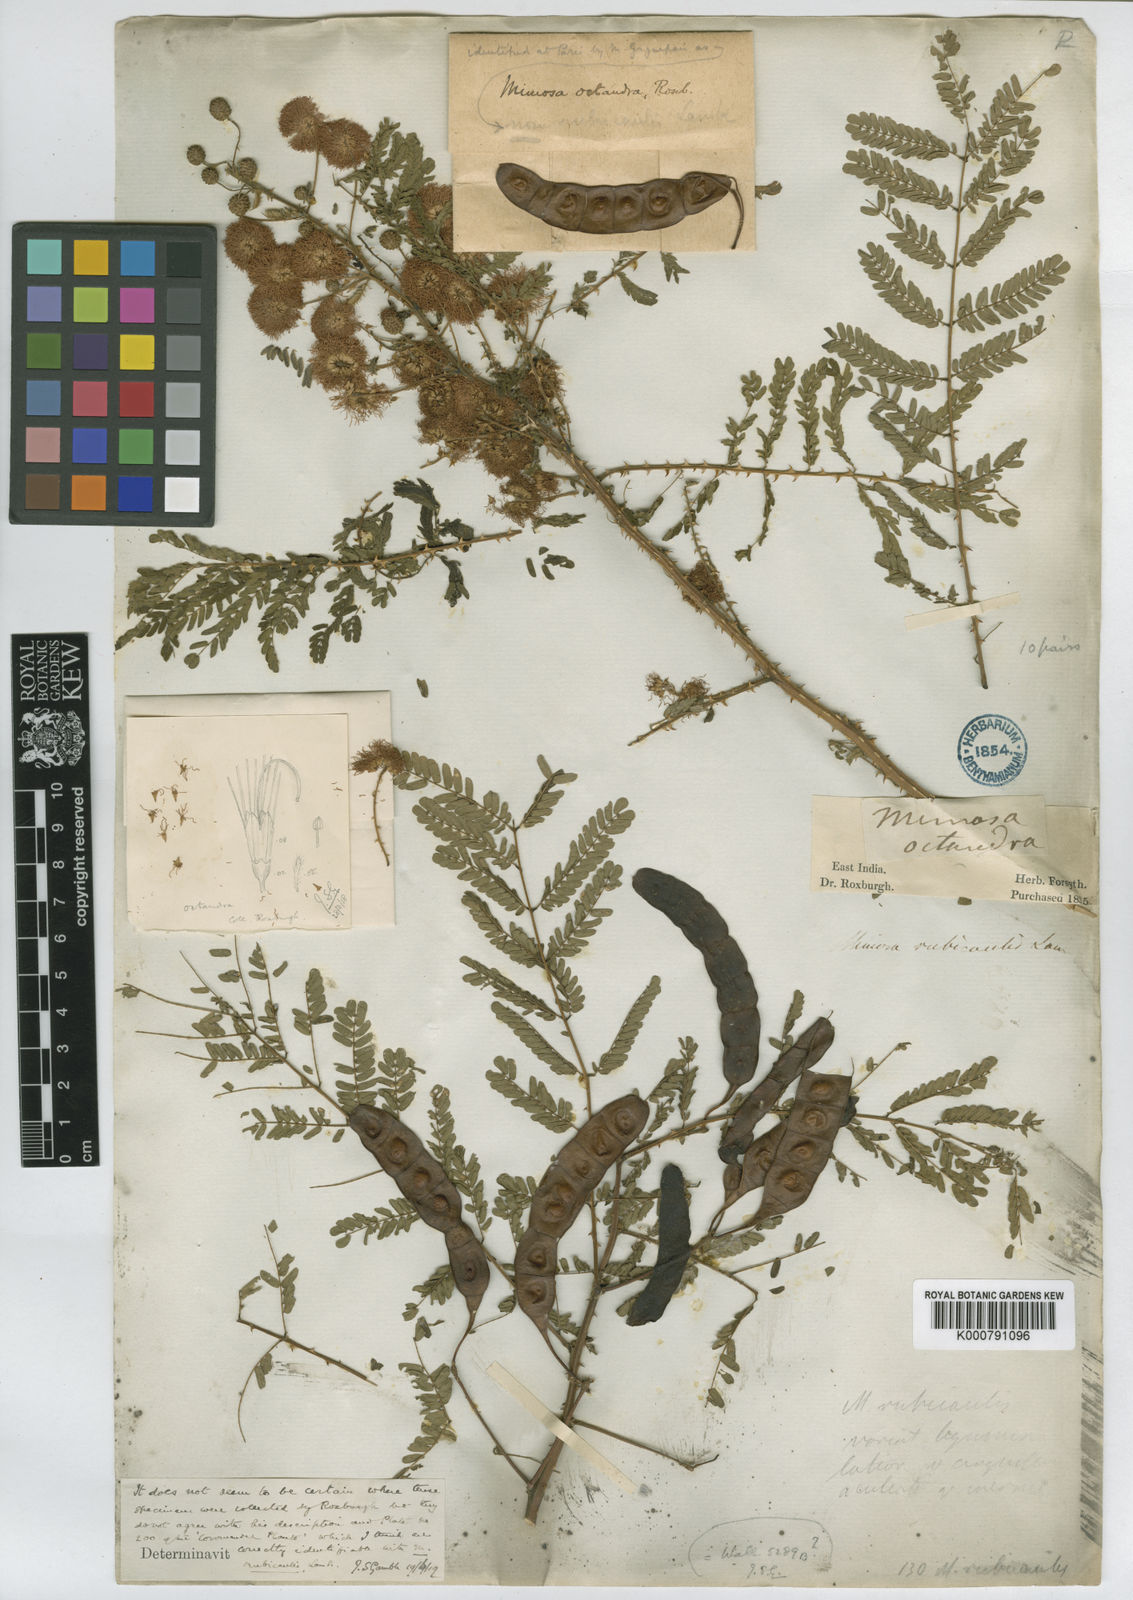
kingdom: Plantae
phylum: Tracheophyta
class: Magnoliopsida
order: Fabales
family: Fabaceae
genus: Mimosa
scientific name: Mimosa rubicaulis
